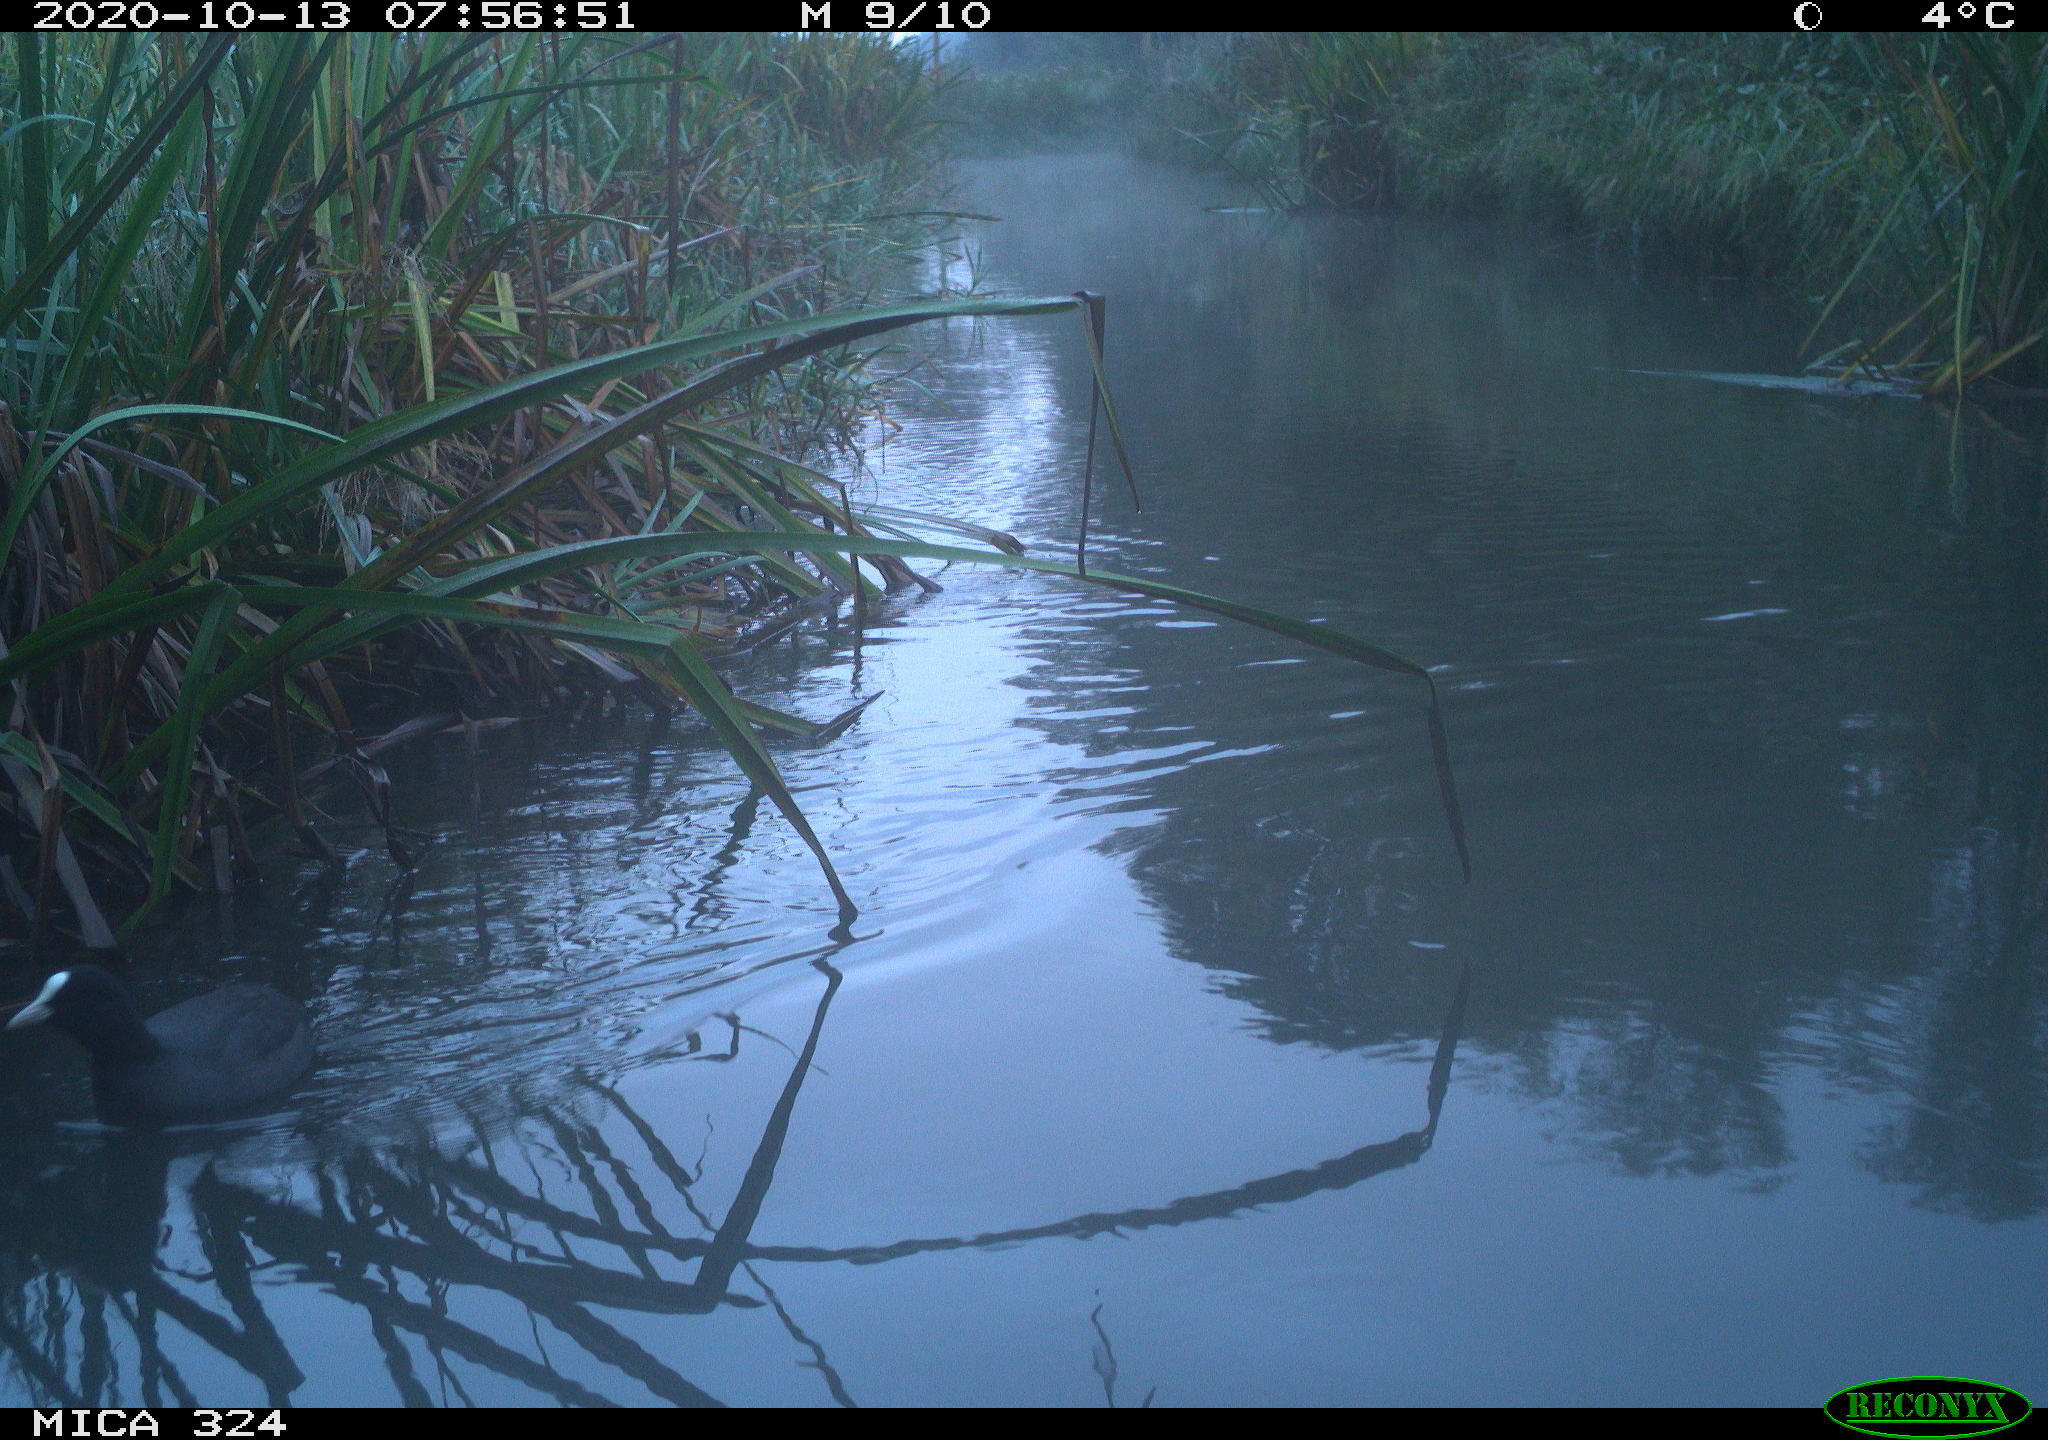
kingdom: Animalia
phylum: Chordata
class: Aves
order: Gruiformes
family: Rallidae
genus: Fulica
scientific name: Fulica atra
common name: Eurasian coot
